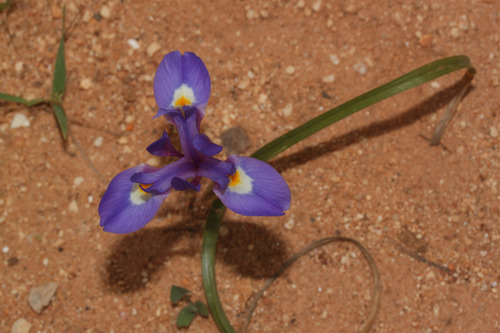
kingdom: Plantae
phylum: Tracheophyta
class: Liliopsida
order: Asparagales
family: Iridaceae
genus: Moraea
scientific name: Moraea sisyrinchium
